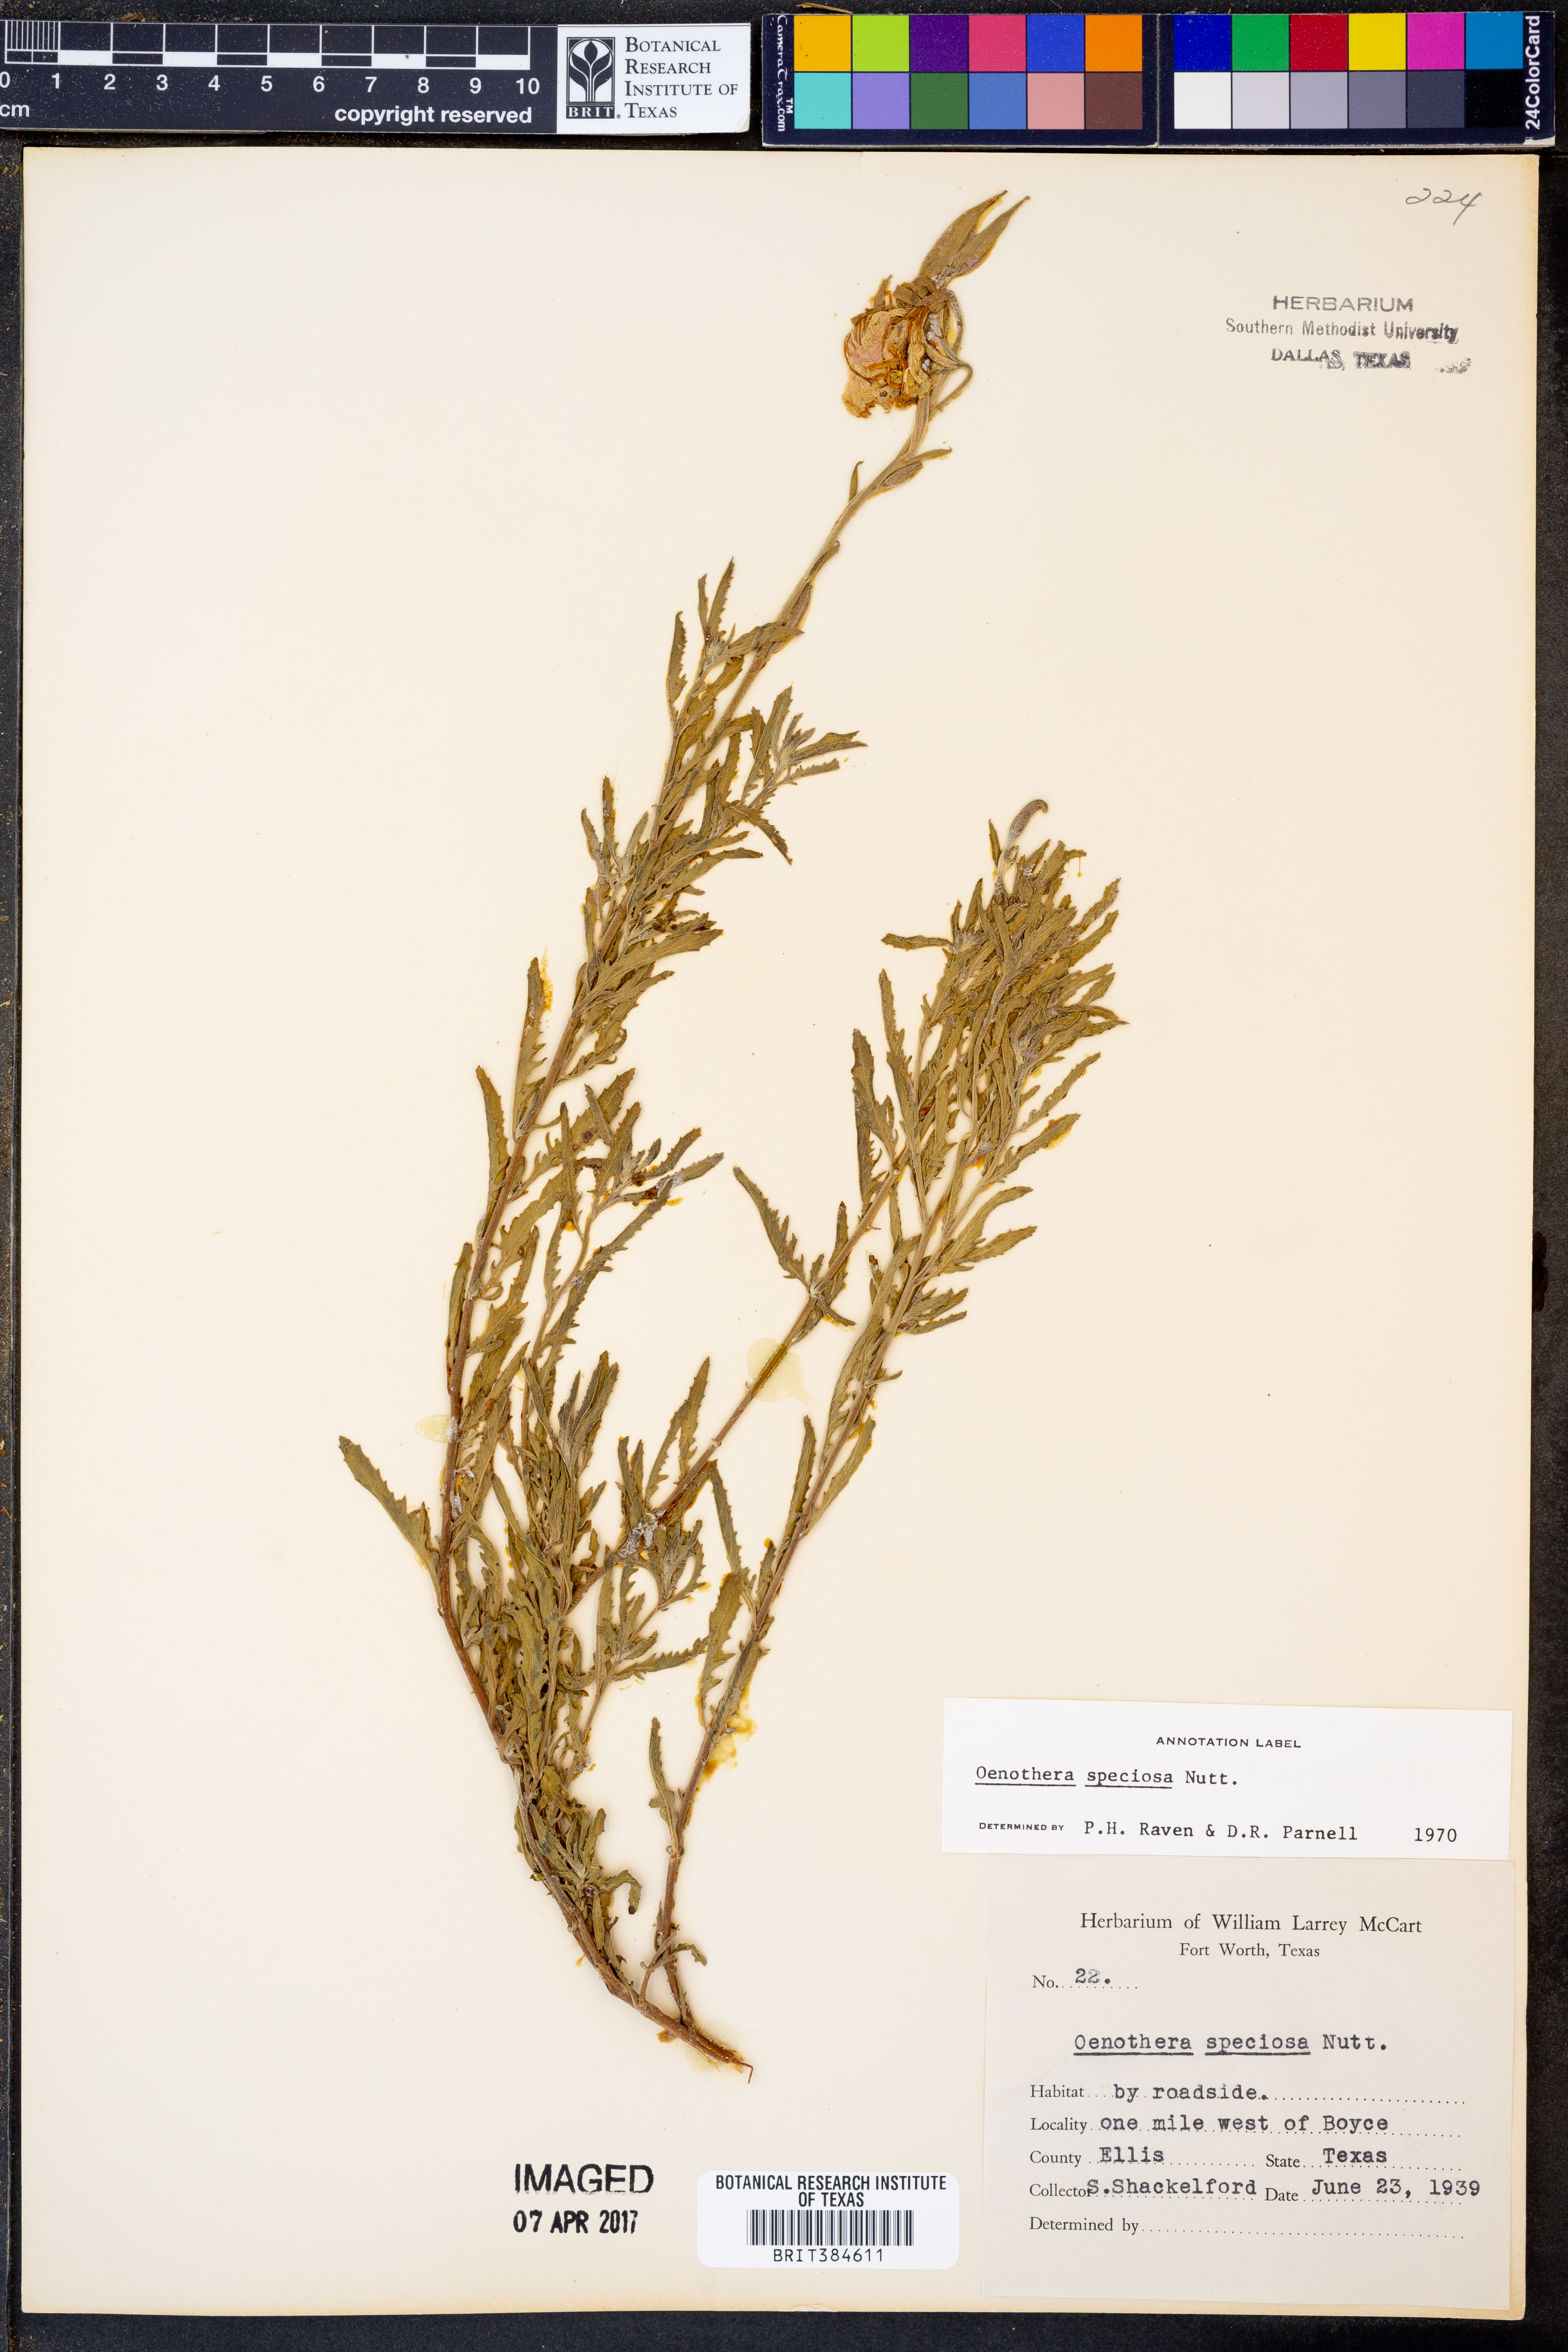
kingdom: Plantae
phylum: Tracheophyta
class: Magnoliopsida
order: Myrtales
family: Onagraceae
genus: Oenothera
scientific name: Oenothera speciosa
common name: White evening-primrose
